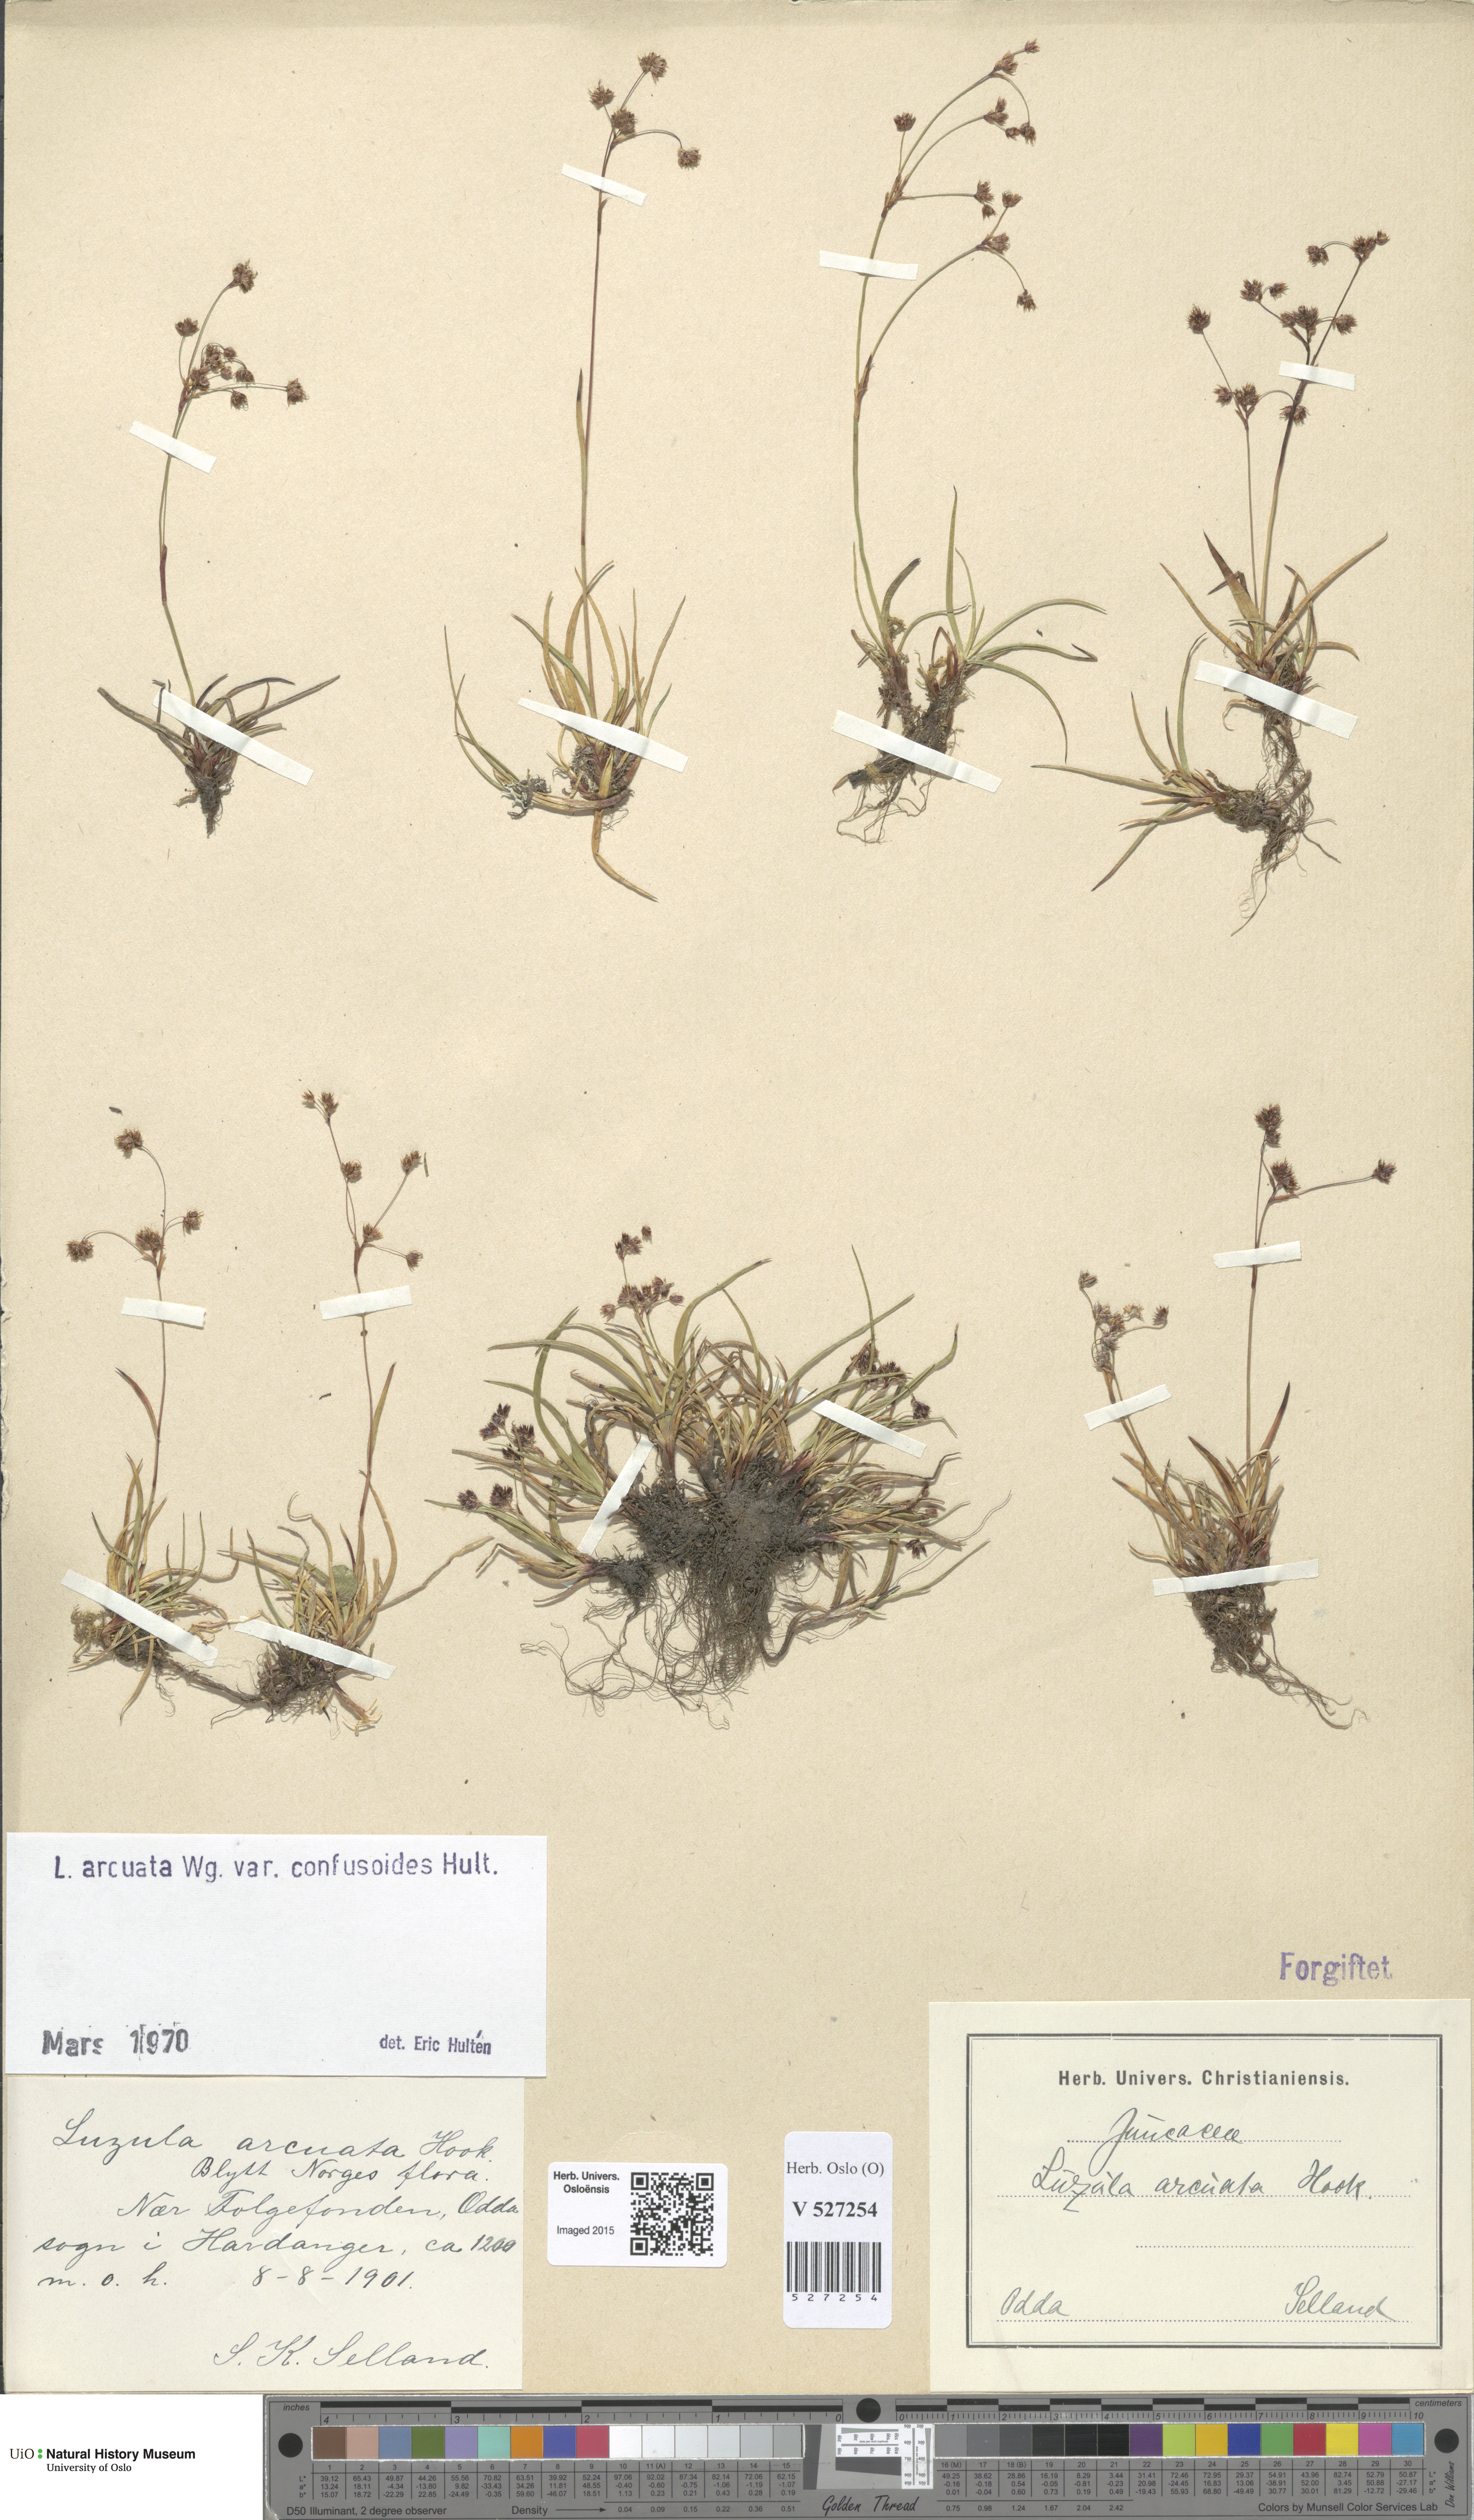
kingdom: Plantae
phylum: Tracheophyta
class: Liliopsida
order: Poales
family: Juncaceae
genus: Luzula
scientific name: Luzula arcuata
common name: Curved wood-rush
